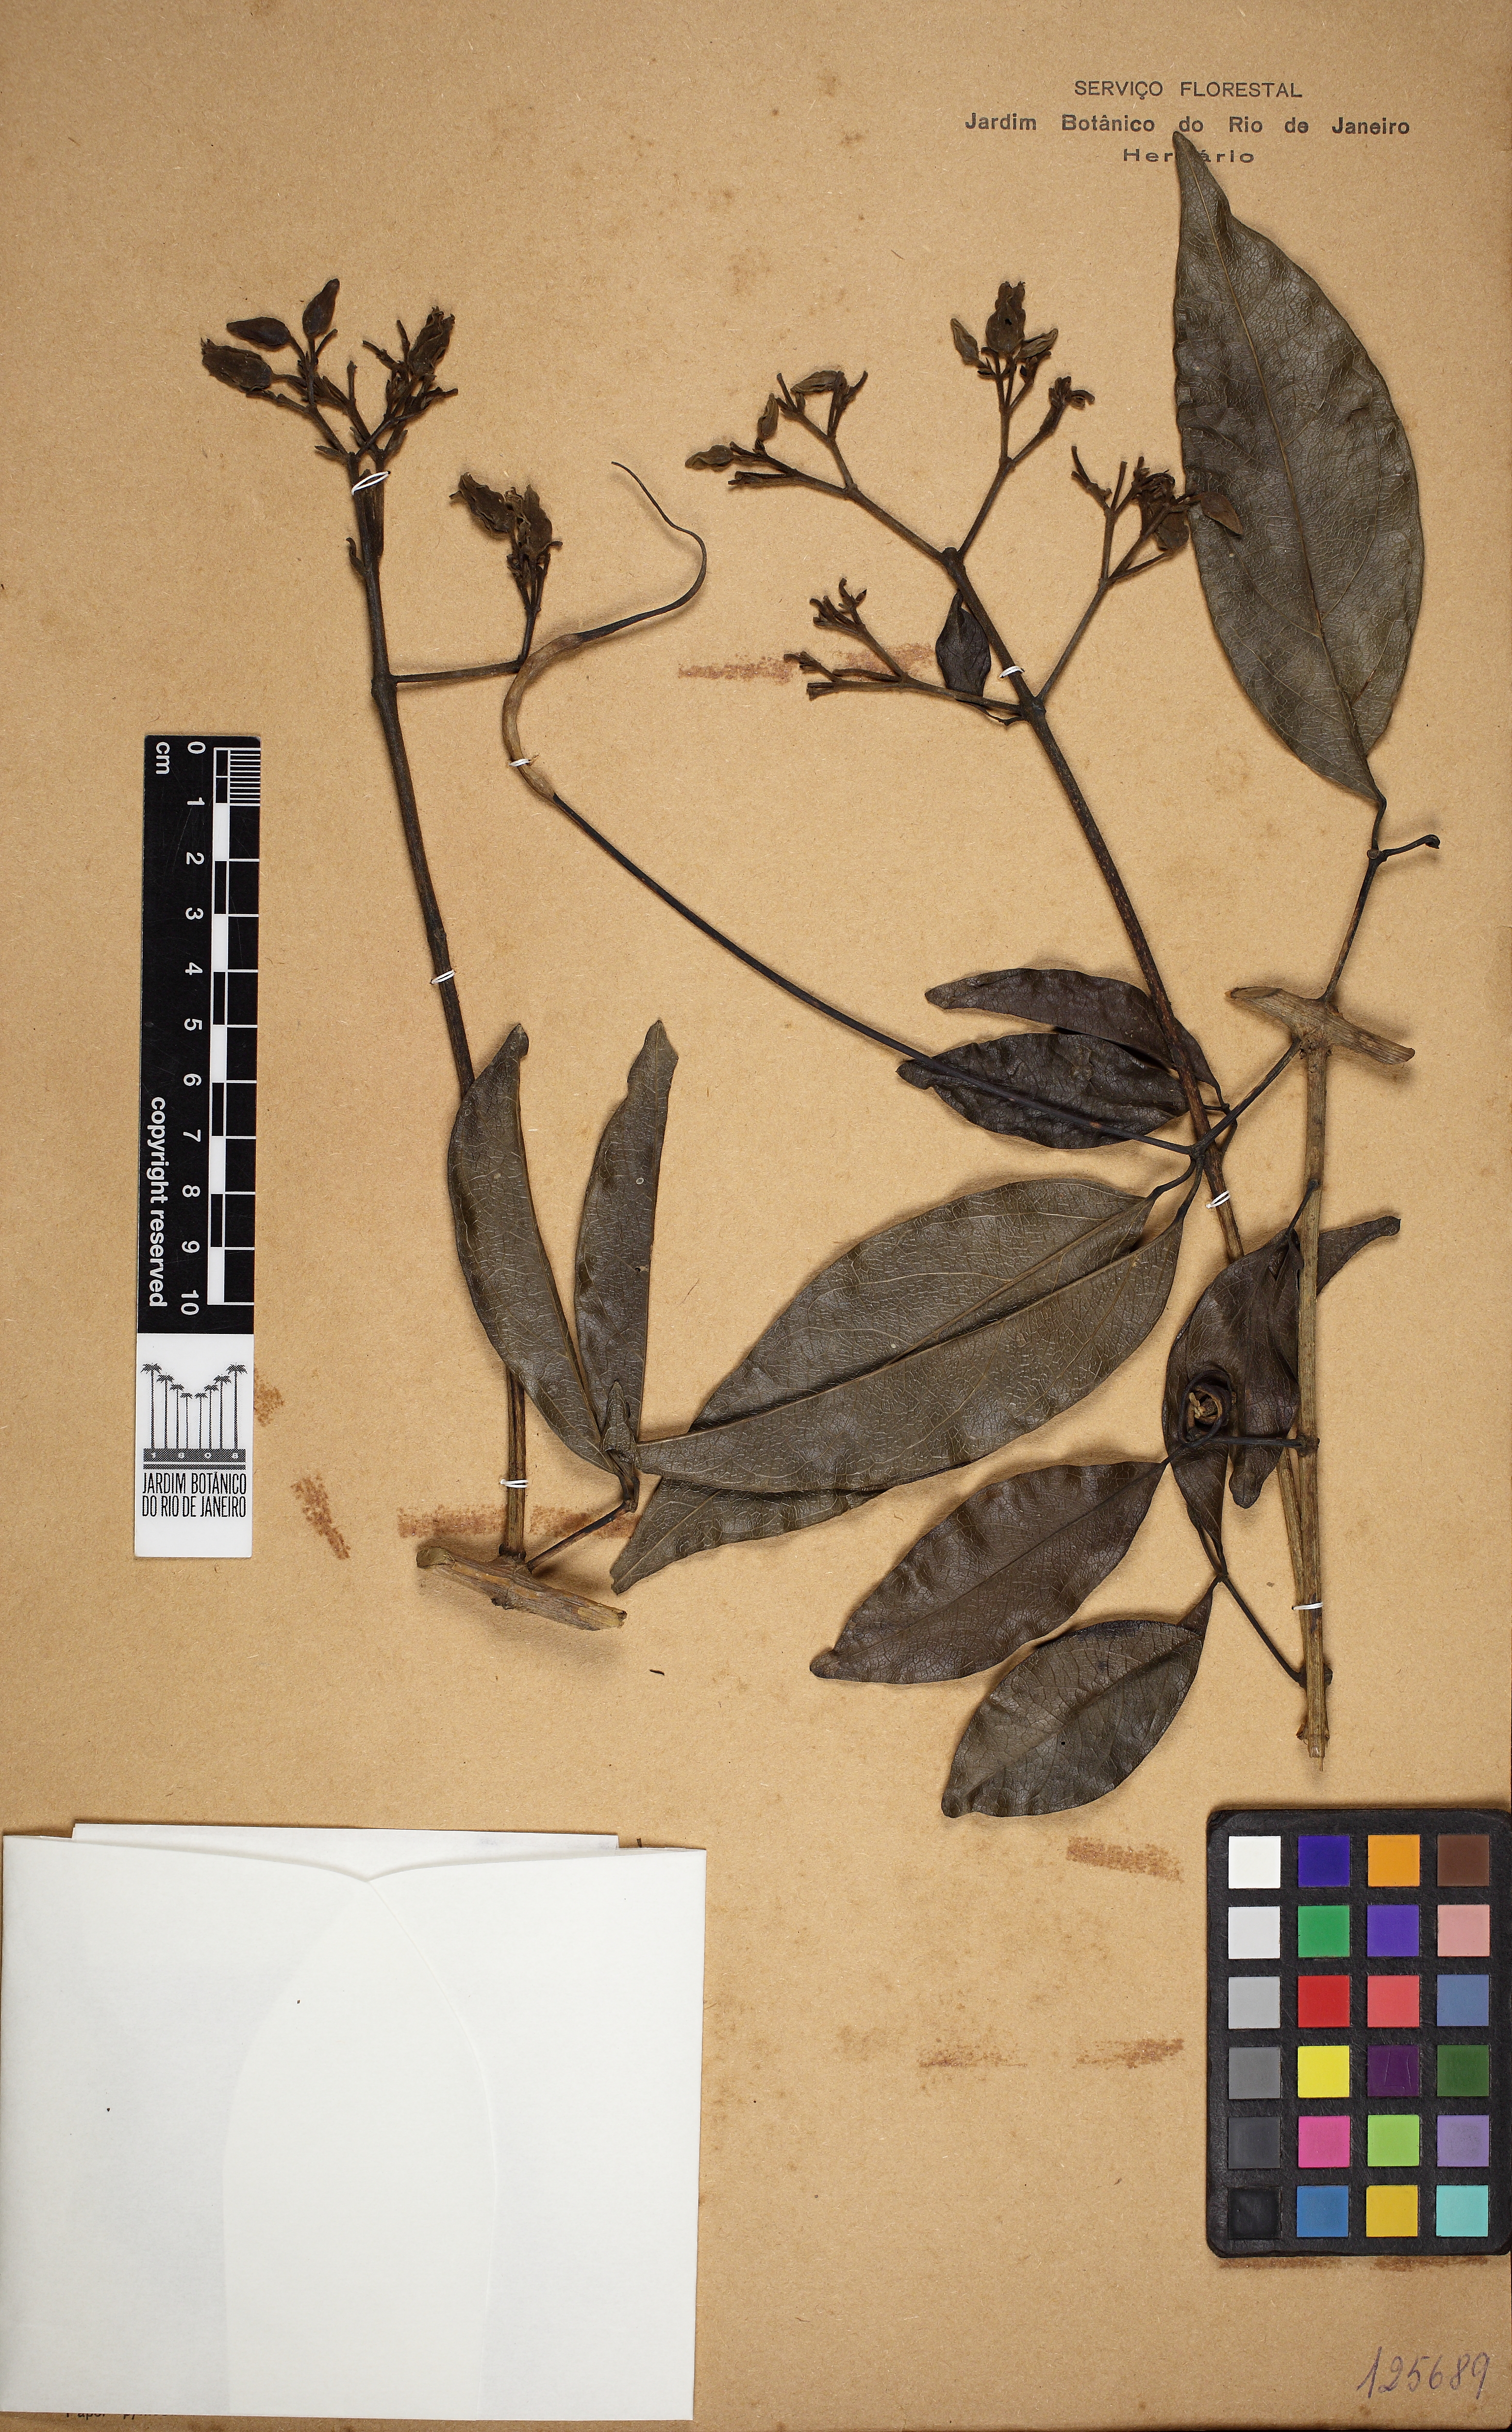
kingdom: Plantae
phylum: Tracheophyta
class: Magnoliopsida
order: Lamiales
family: Bignoniaceae
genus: Fridericia
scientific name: Fridericia speciosa
